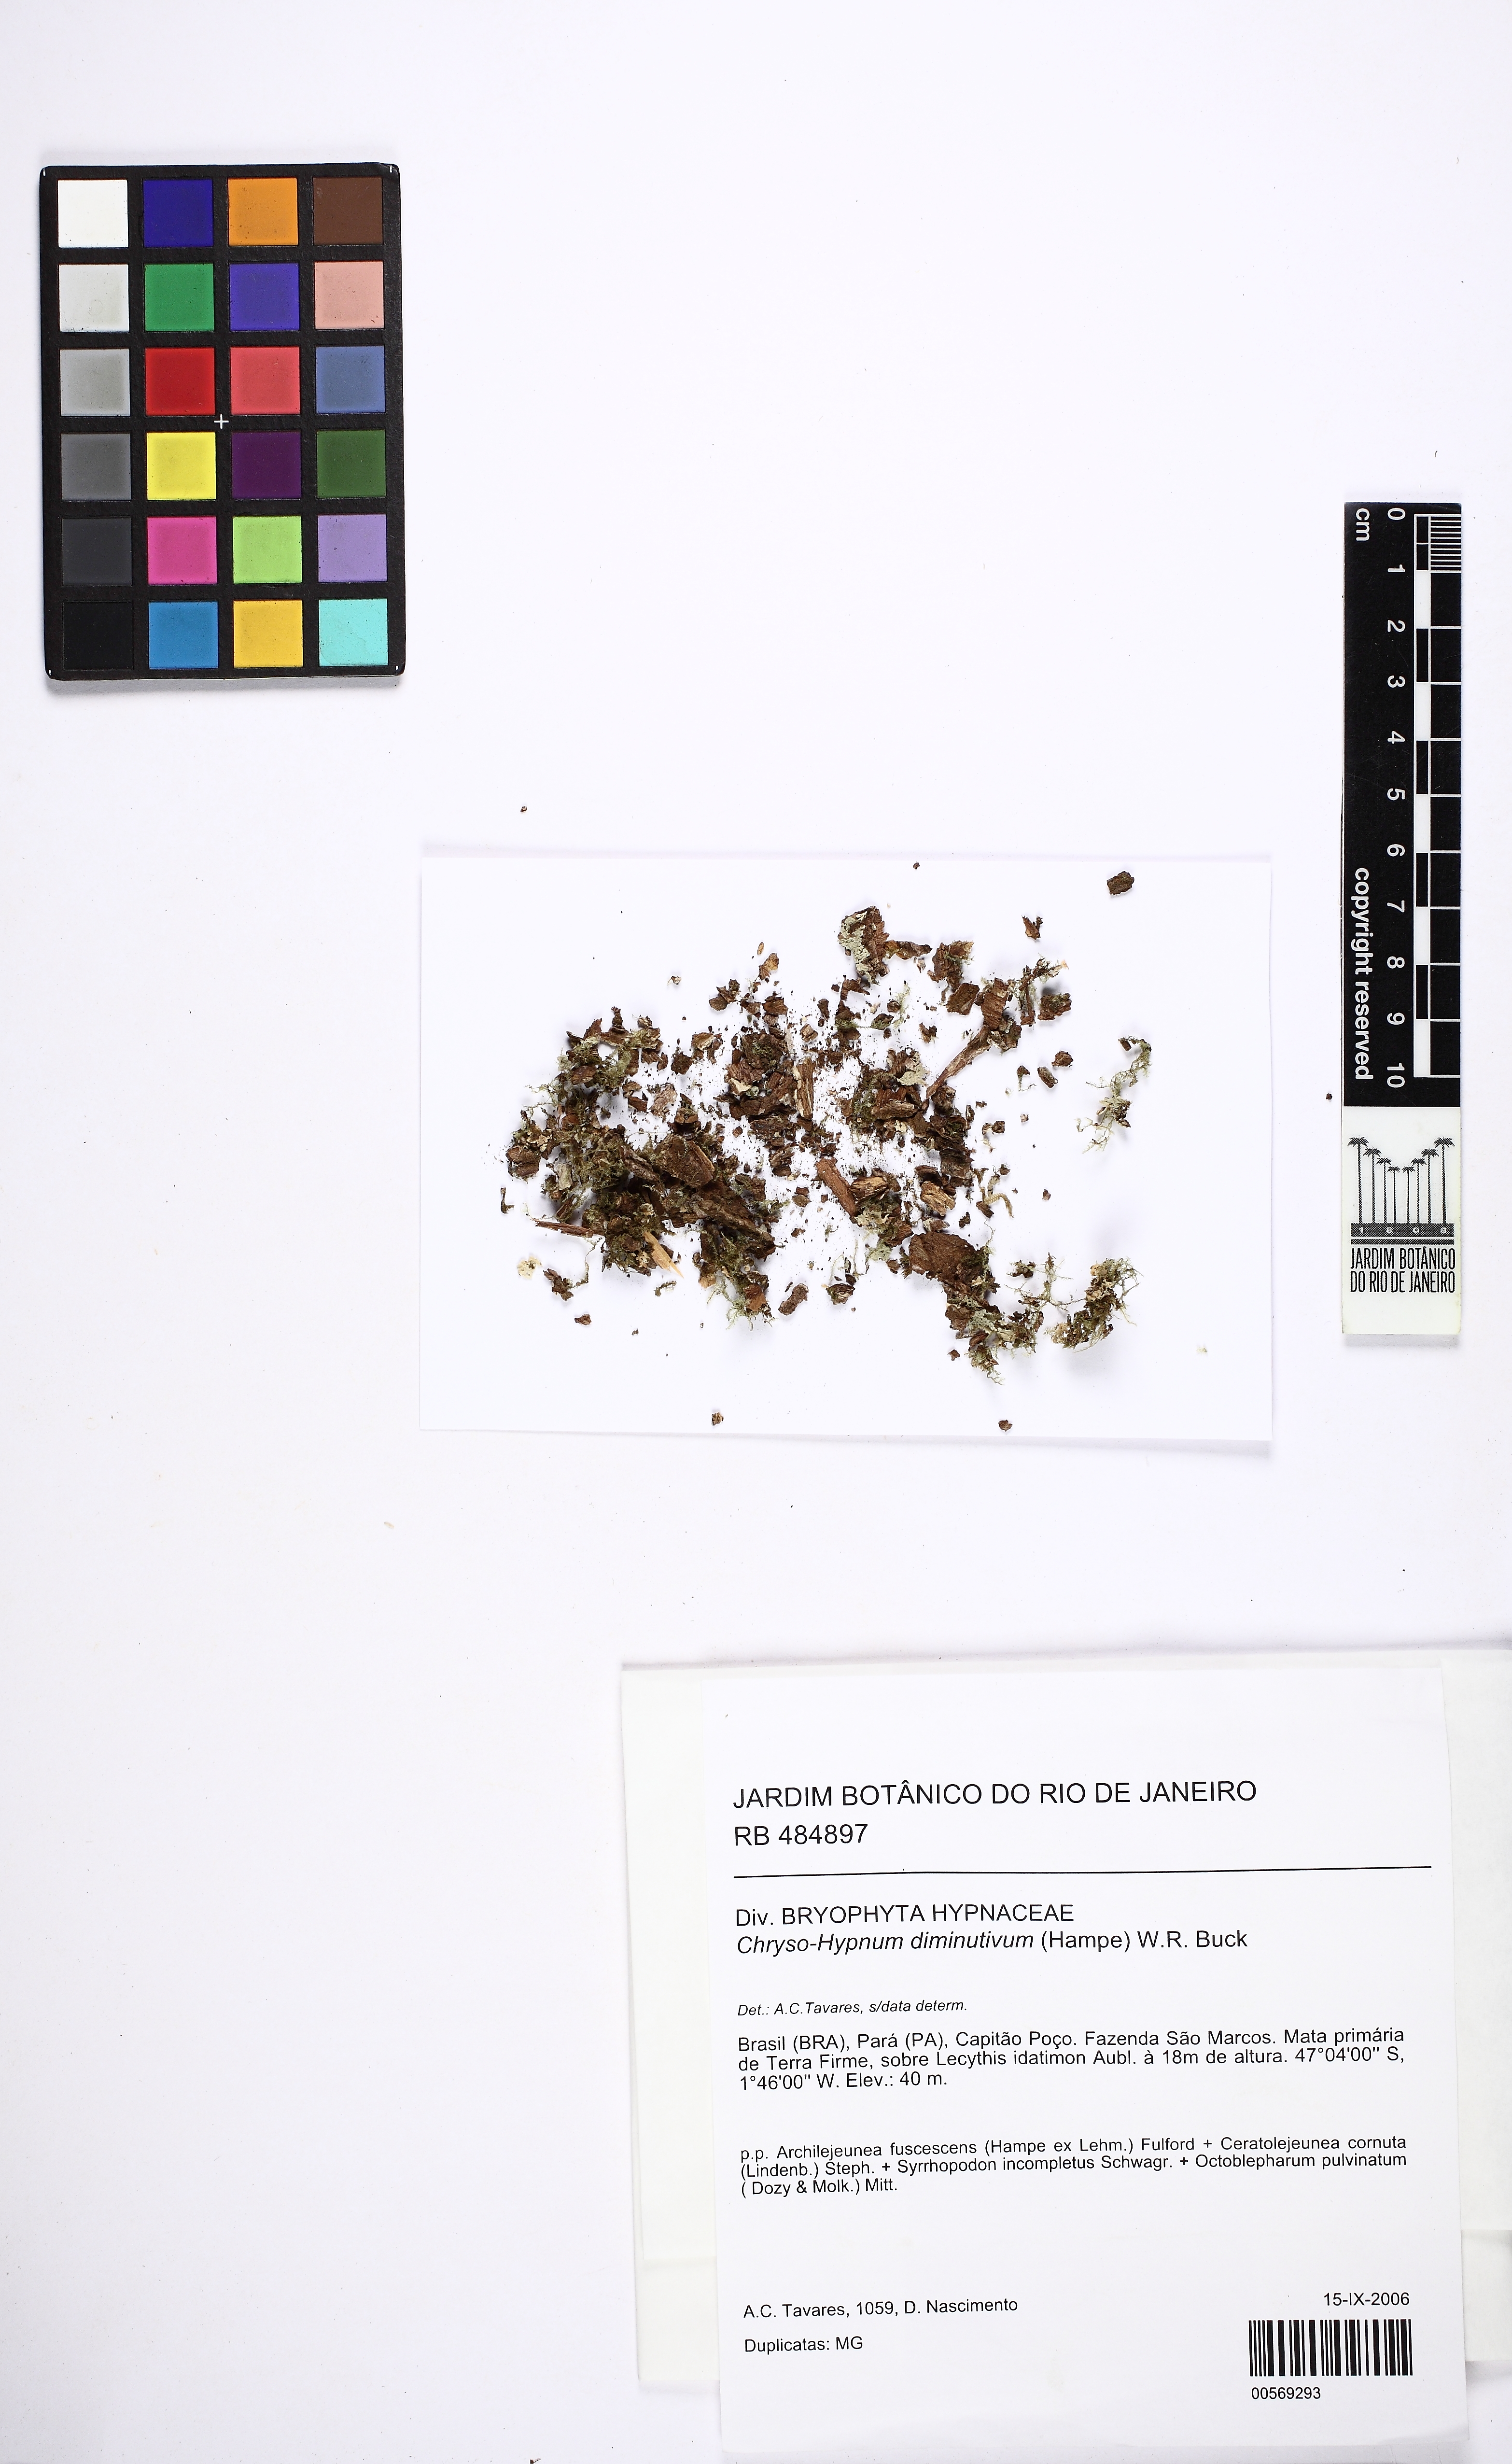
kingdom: Plantae
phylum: Bryophyta
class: Bryopsida
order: Hypnales
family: Hypnaceae
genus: Chryso-hypnum
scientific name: Chryso-hypnum diminutivum
